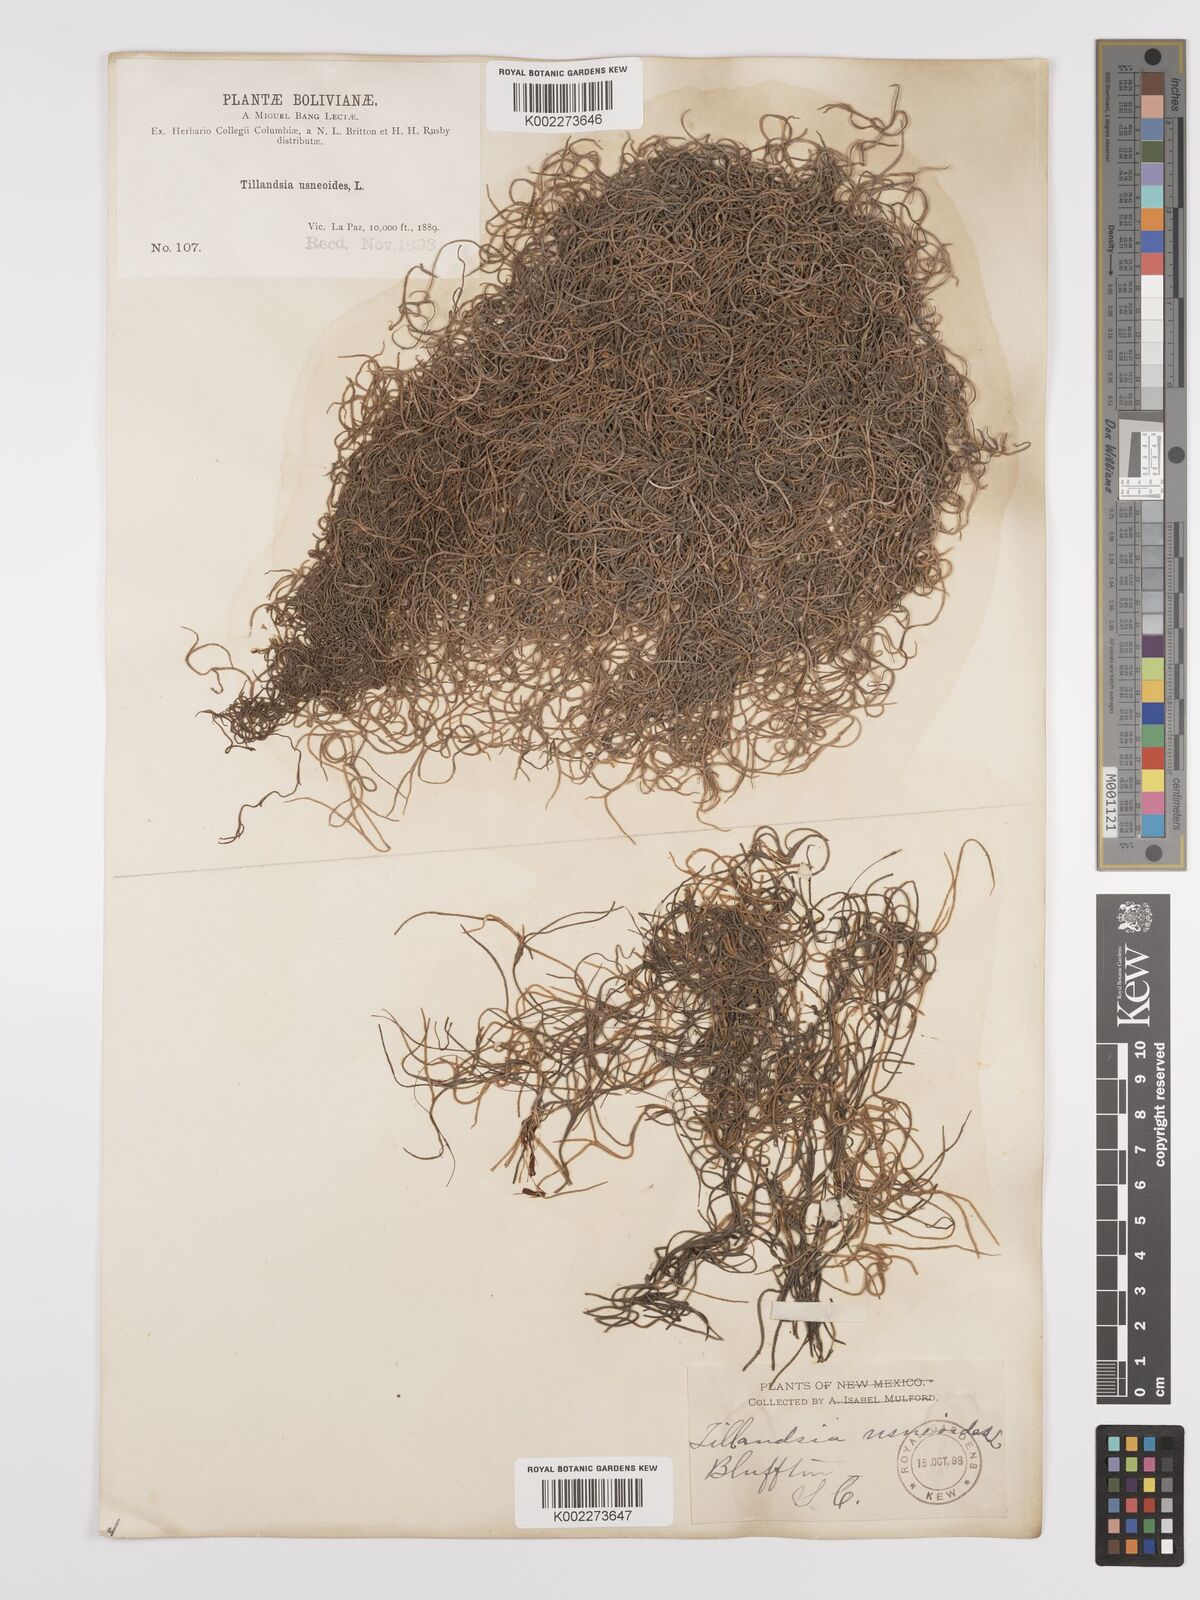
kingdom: Plantae
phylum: Tracheophyta
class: Liliopsida
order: Poales
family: Bromeliaceae
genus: Tillandsia
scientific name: Tillandsia usneoides
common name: Spanish moss
